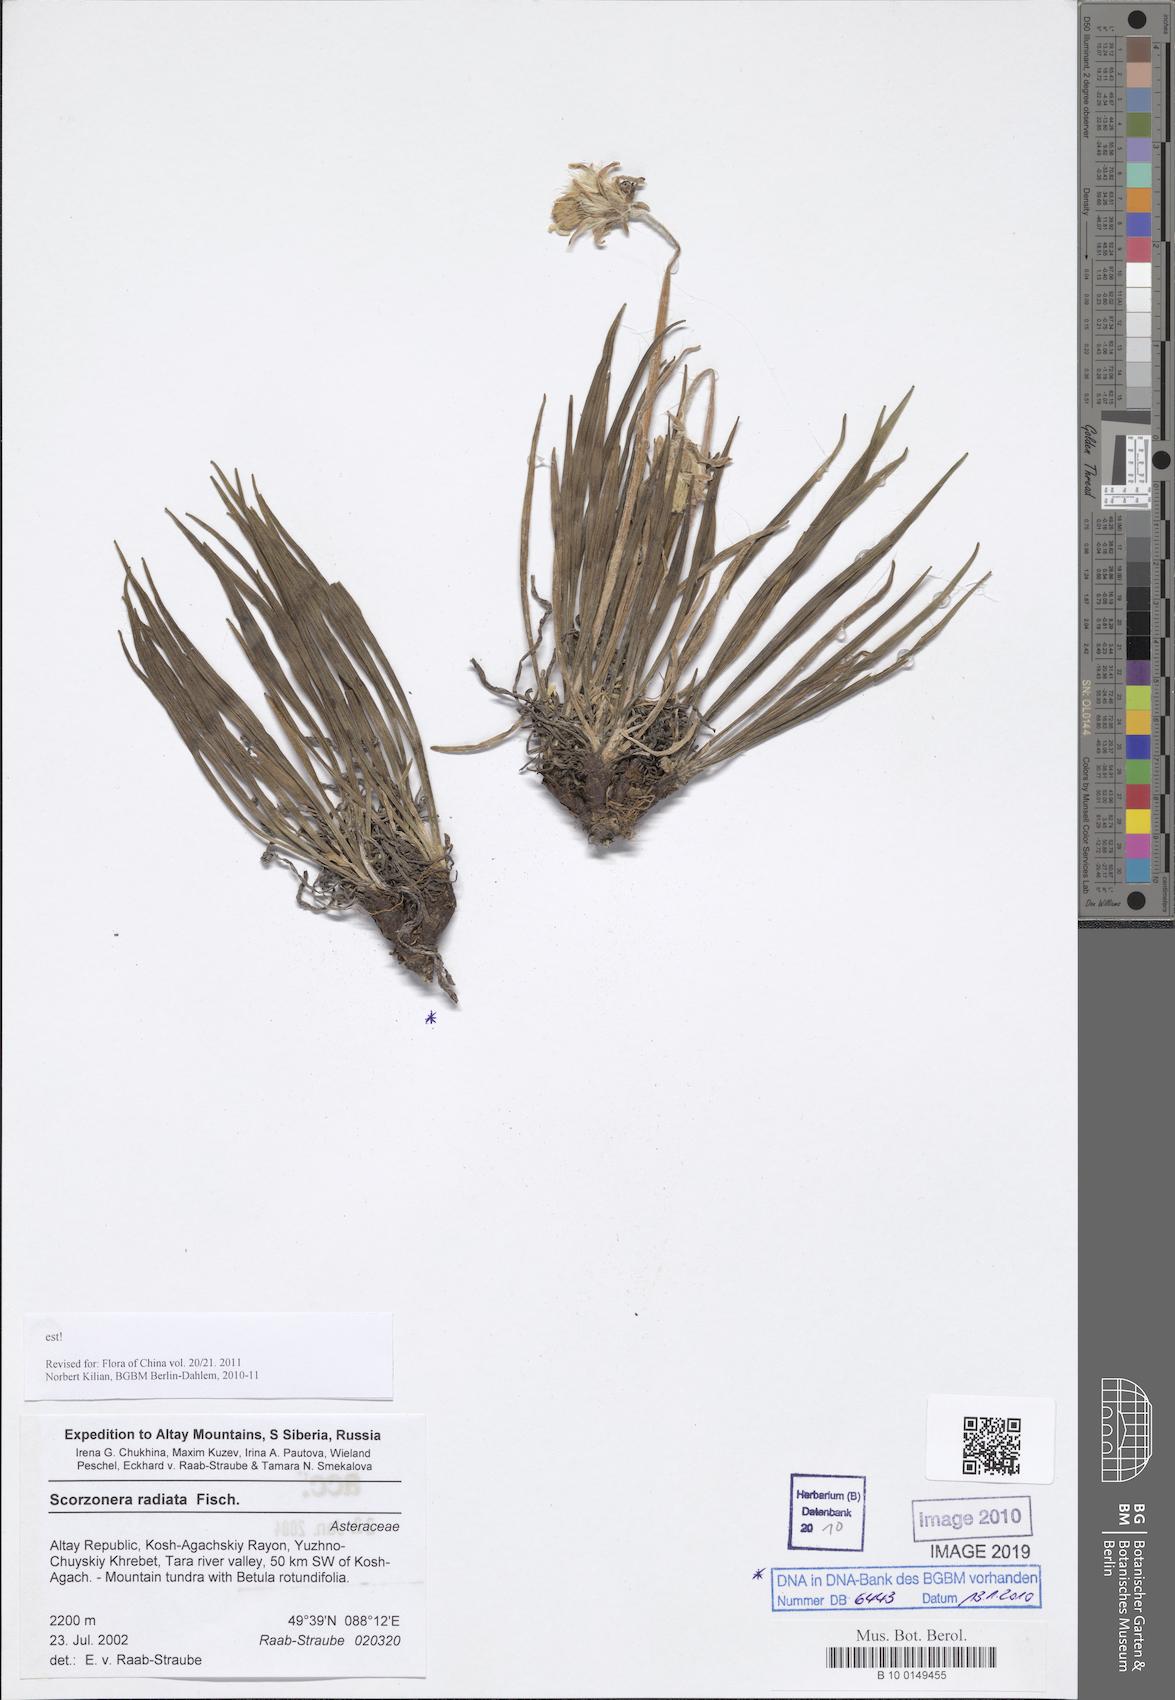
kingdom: Plantae
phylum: Tracheophyta
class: Magnoliopsida
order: Asterales
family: Asteraceae
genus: Scorzonera
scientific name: Scorzonera radiata
